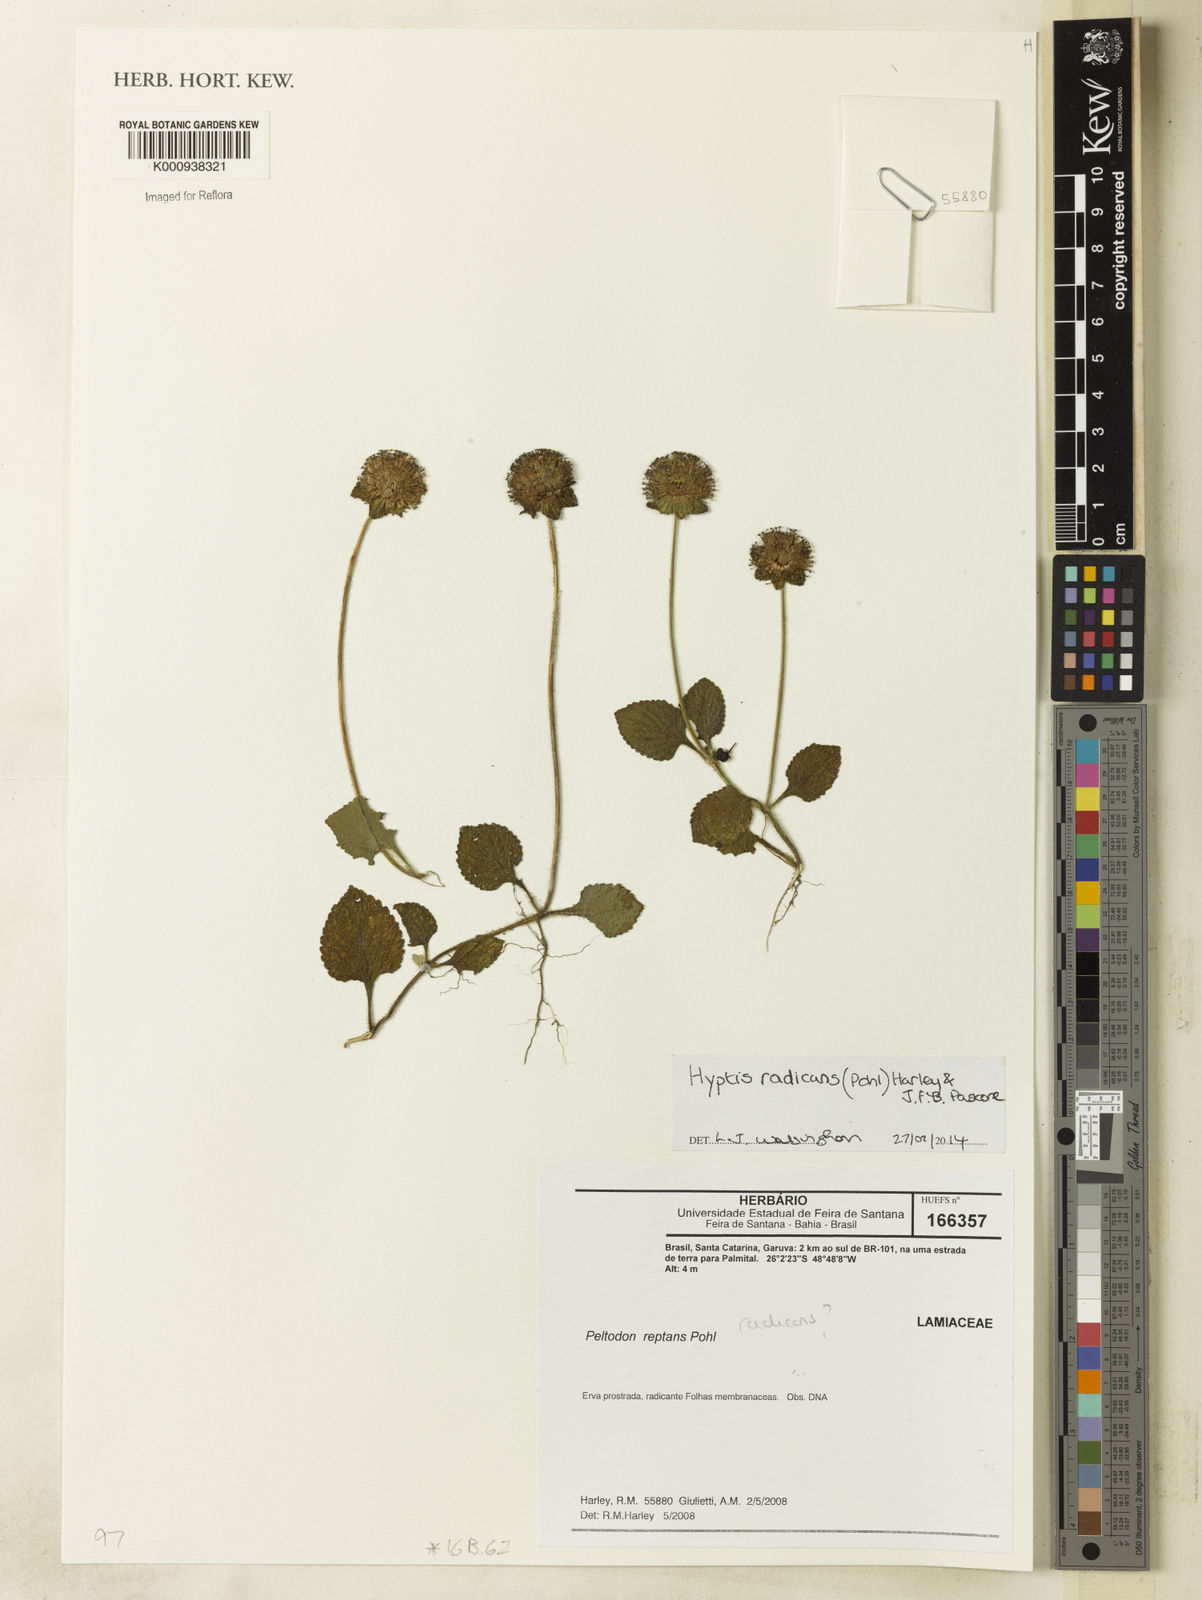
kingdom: Plantae
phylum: Tracheophyta
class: Magnoliopsida
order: Lamiales
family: Lamiaceae
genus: Hyptis
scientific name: Hyptis radicans
